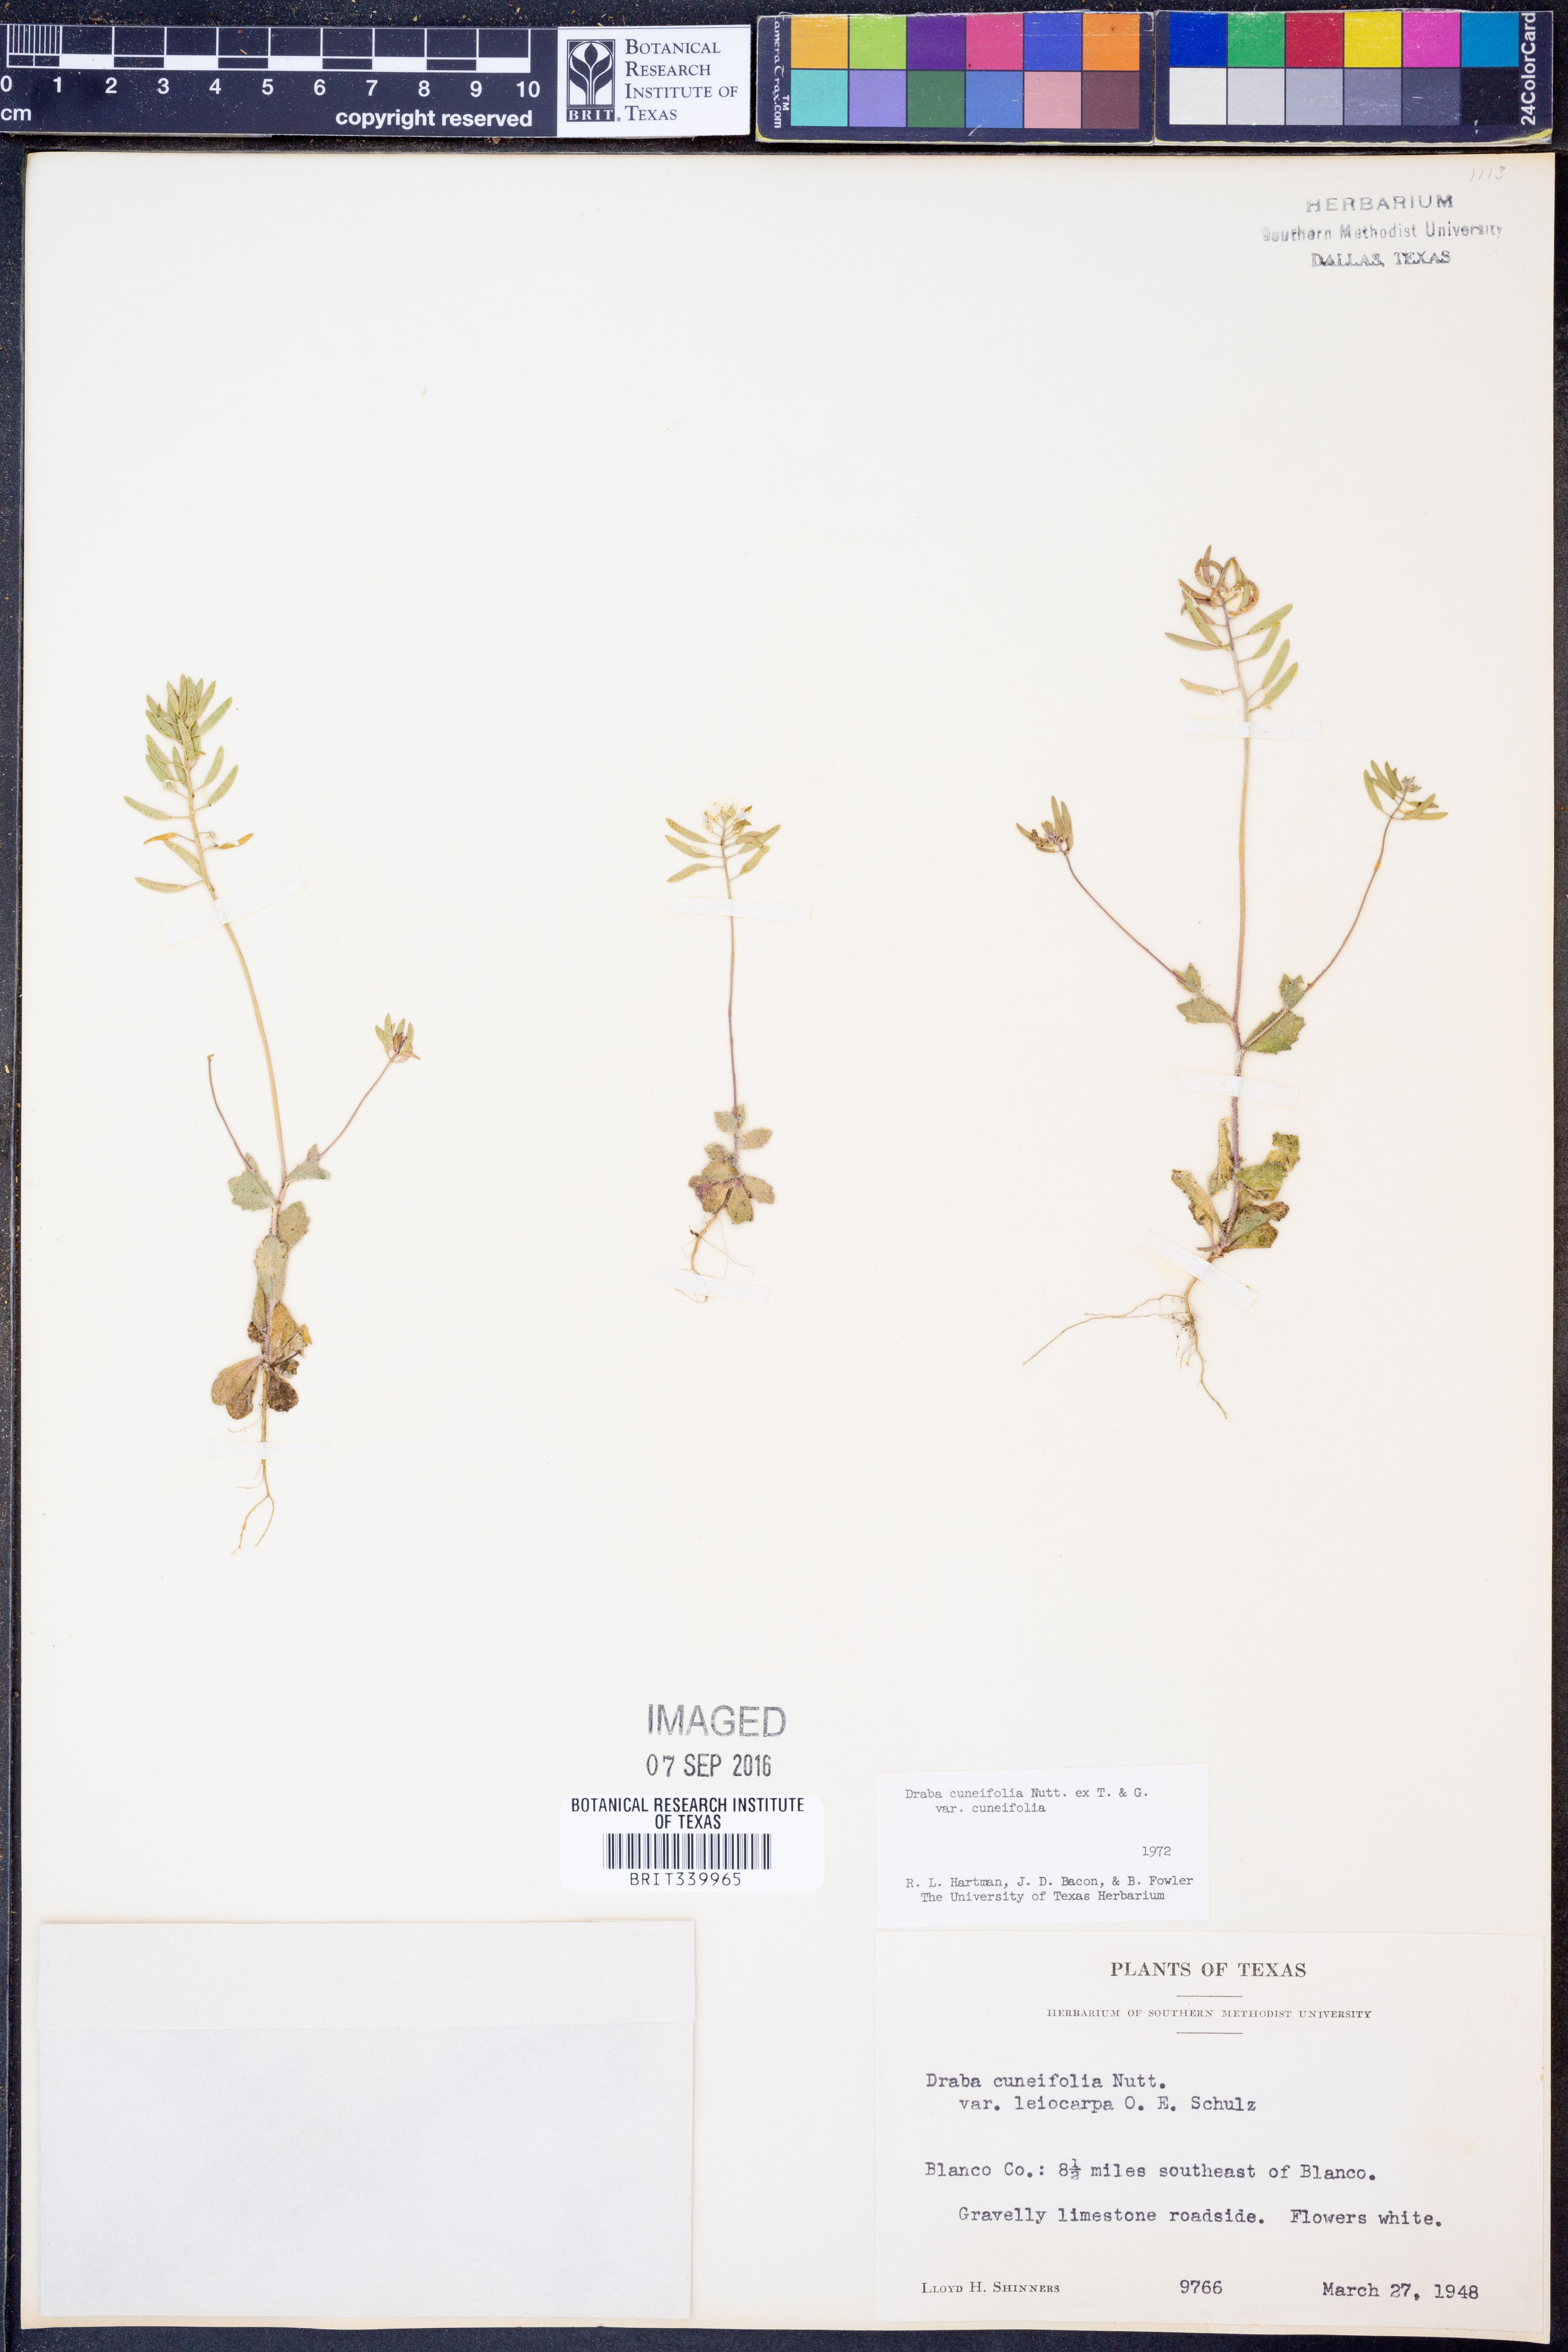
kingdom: Plantae
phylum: Tracheophyta
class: Magnoliopsida
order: Brassicales
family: Brassicaceae
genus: Tomostima
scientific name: Tomostima cuneifolia
